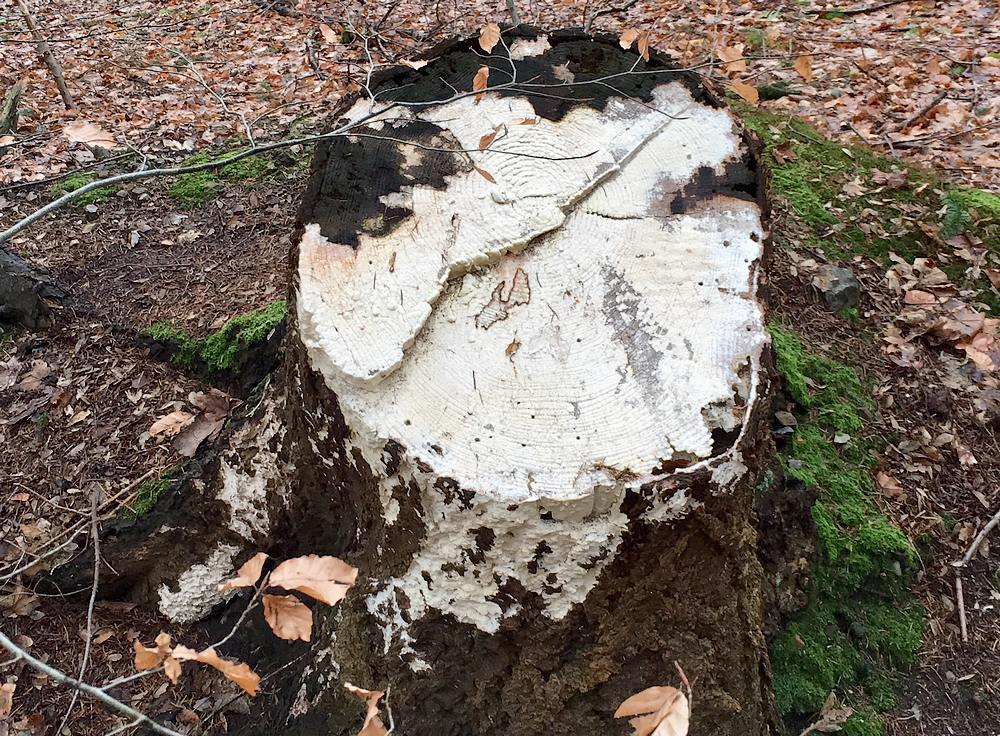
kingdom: Fungi
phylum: Basidiomycota
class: Agaricomycetes
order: Polyporales
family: Fomitopsidaceae
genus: Daedalea
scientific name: Daedalea xantha
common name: gul sejporesvamp
